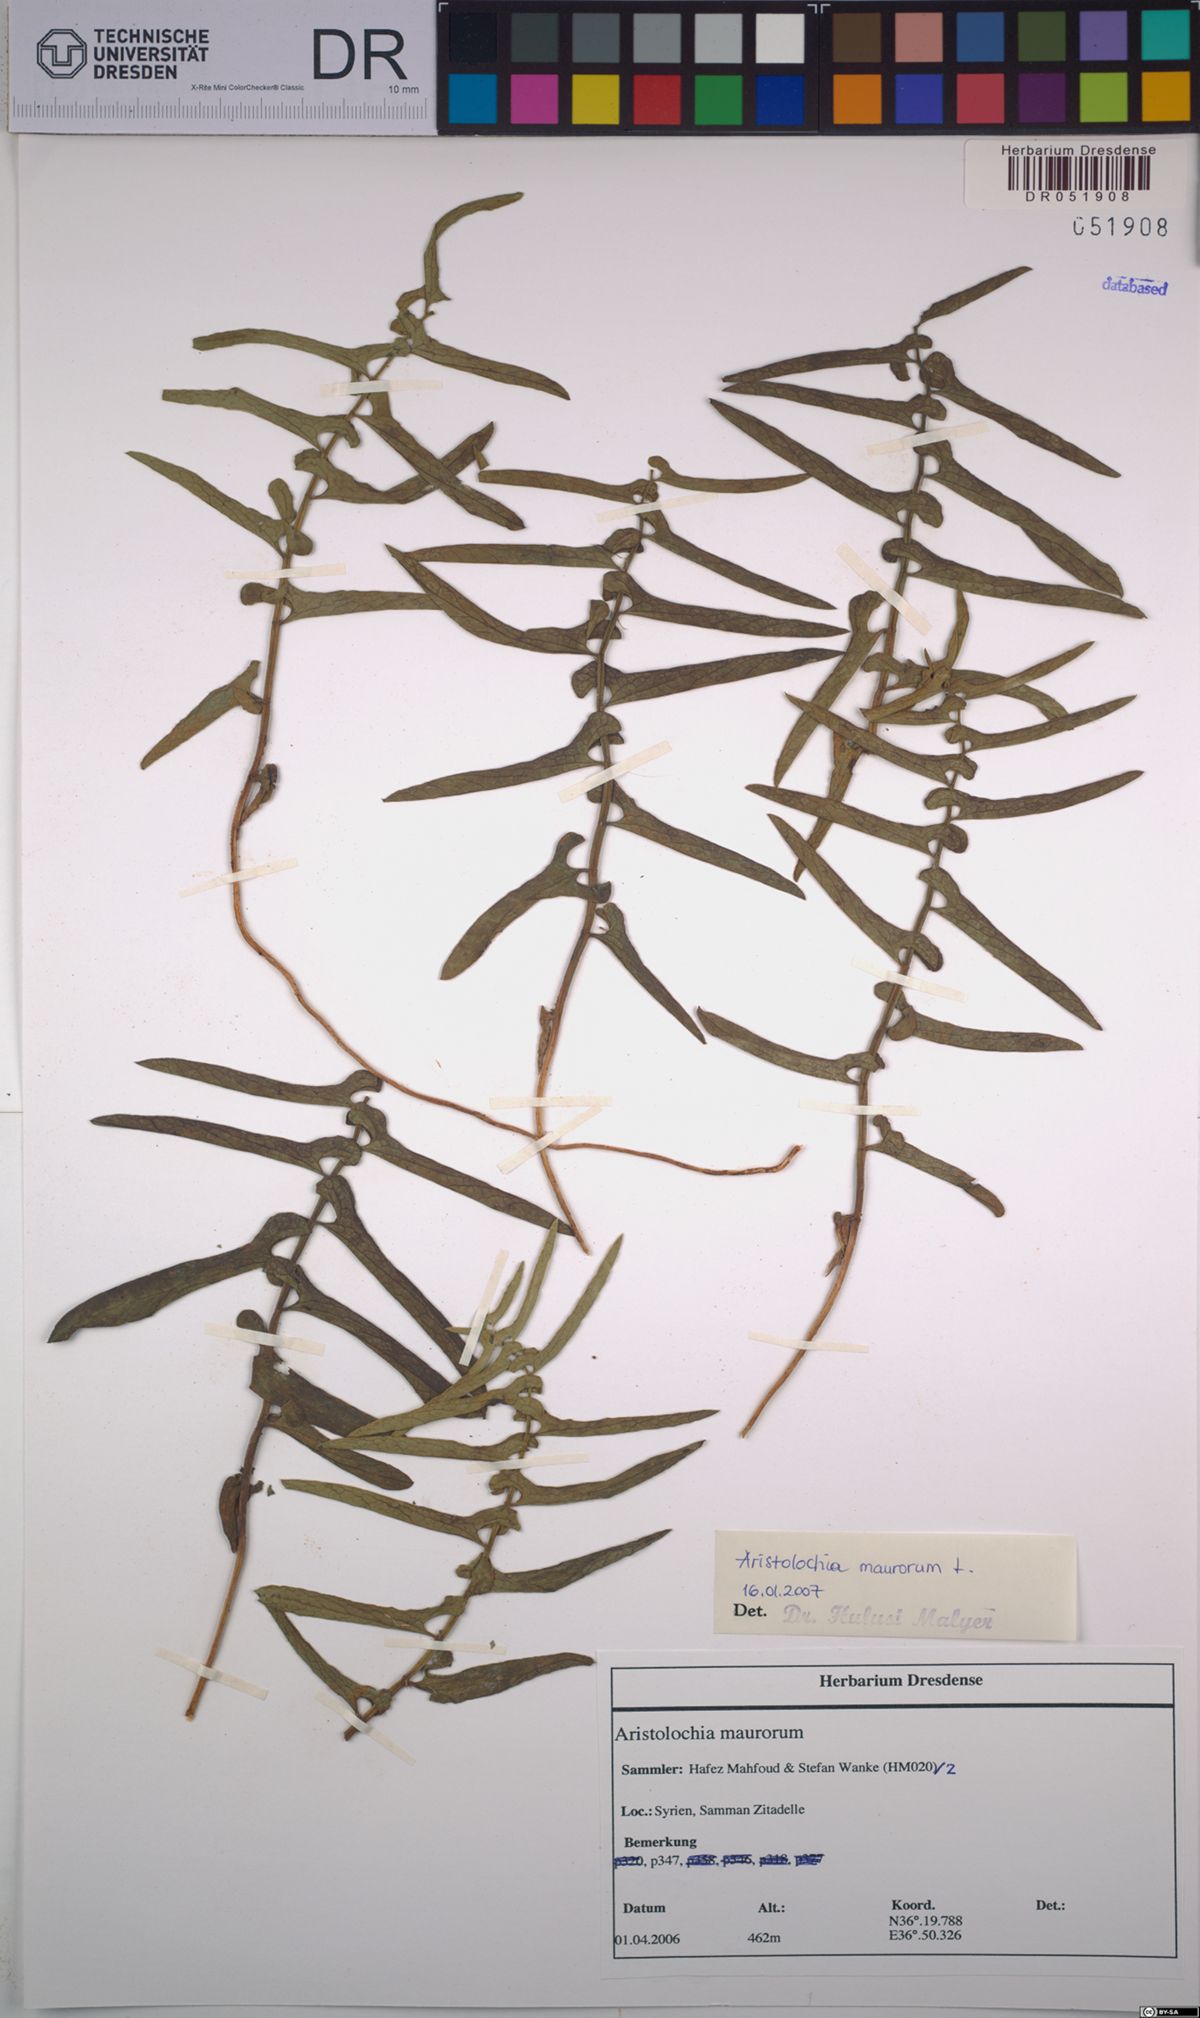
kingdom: Plantae
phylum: Tracheophyta
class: Magnoliopsida
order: Piperales
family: Aristolochiaceae
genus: Aristolochia
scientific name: Aristolochia maurorum
